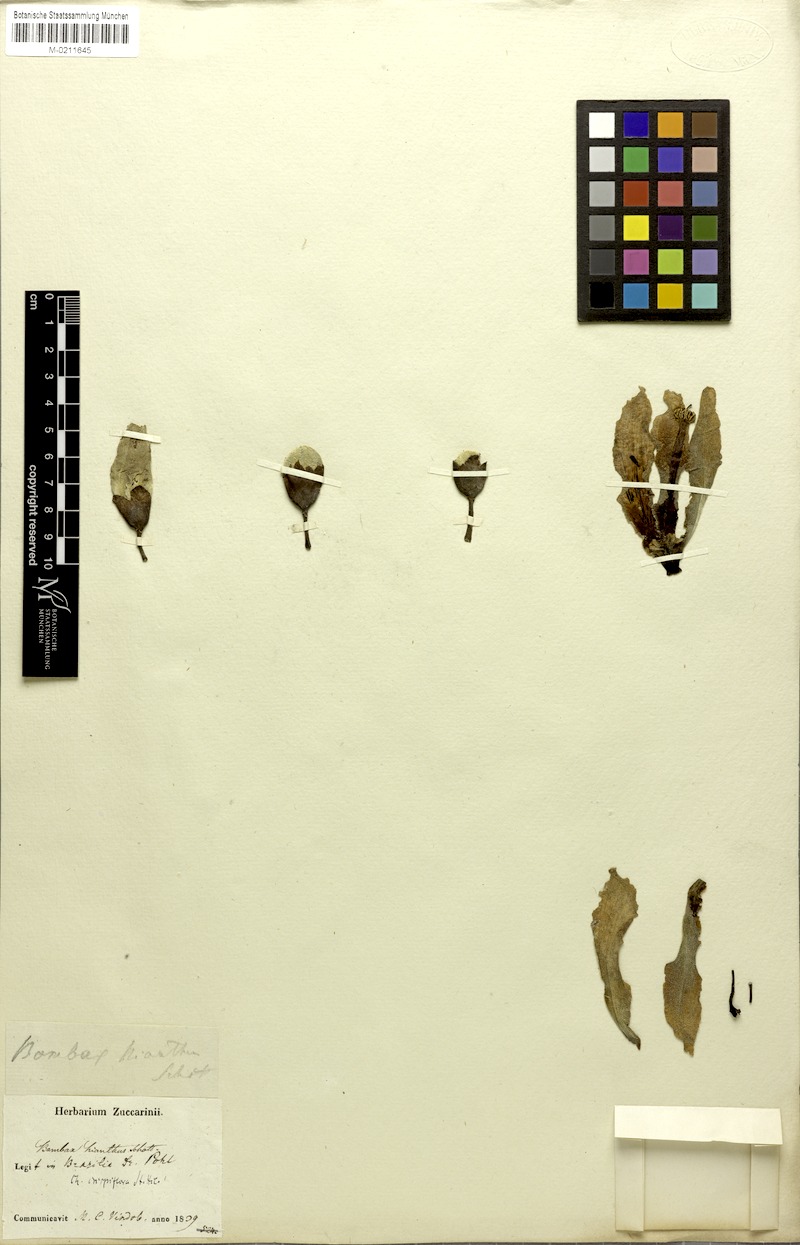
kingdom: Plantae
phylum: Tracheophyta
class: Magnoliopsida
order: Malvales
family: Malvaceae
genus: Ceiba
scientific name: Ceiba crispiflora
